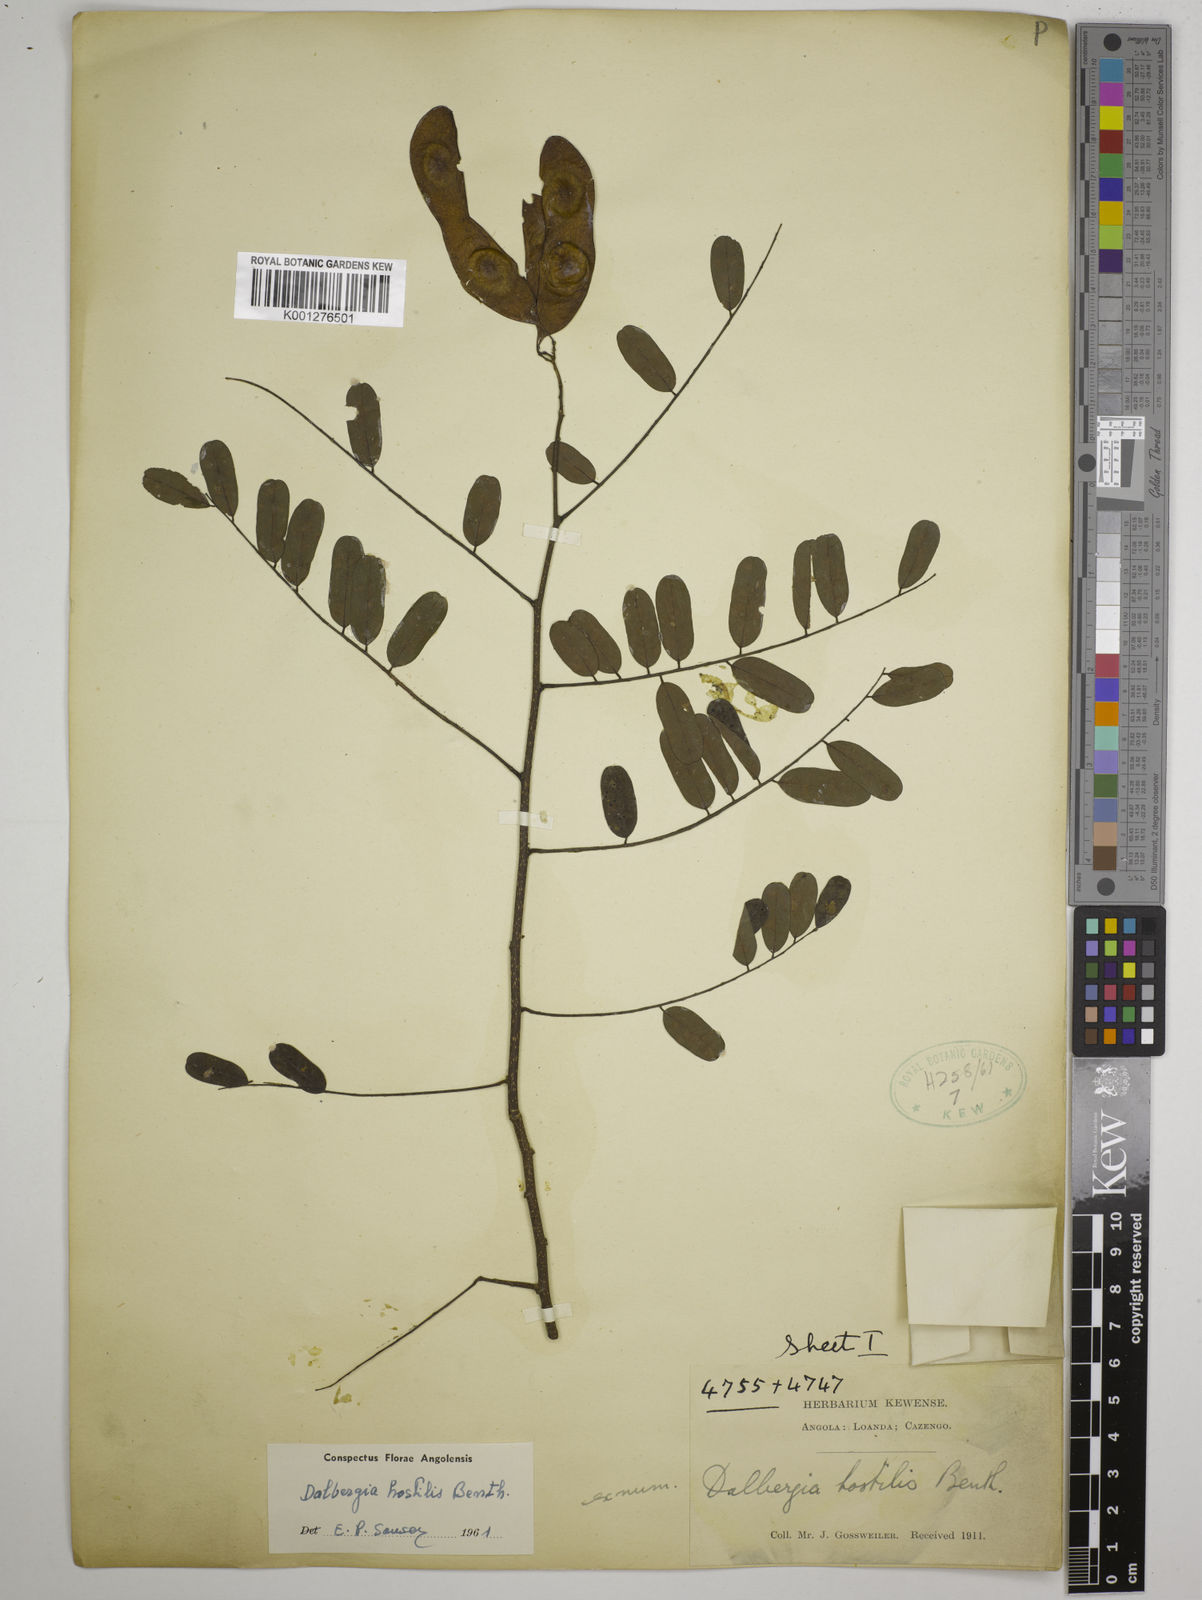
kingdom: Plantae
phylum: Tracheophyta
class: Magnoliopsida
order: Fabales
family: Fabaceae
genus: Dalbergia
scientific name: Dalbergia hostilis
